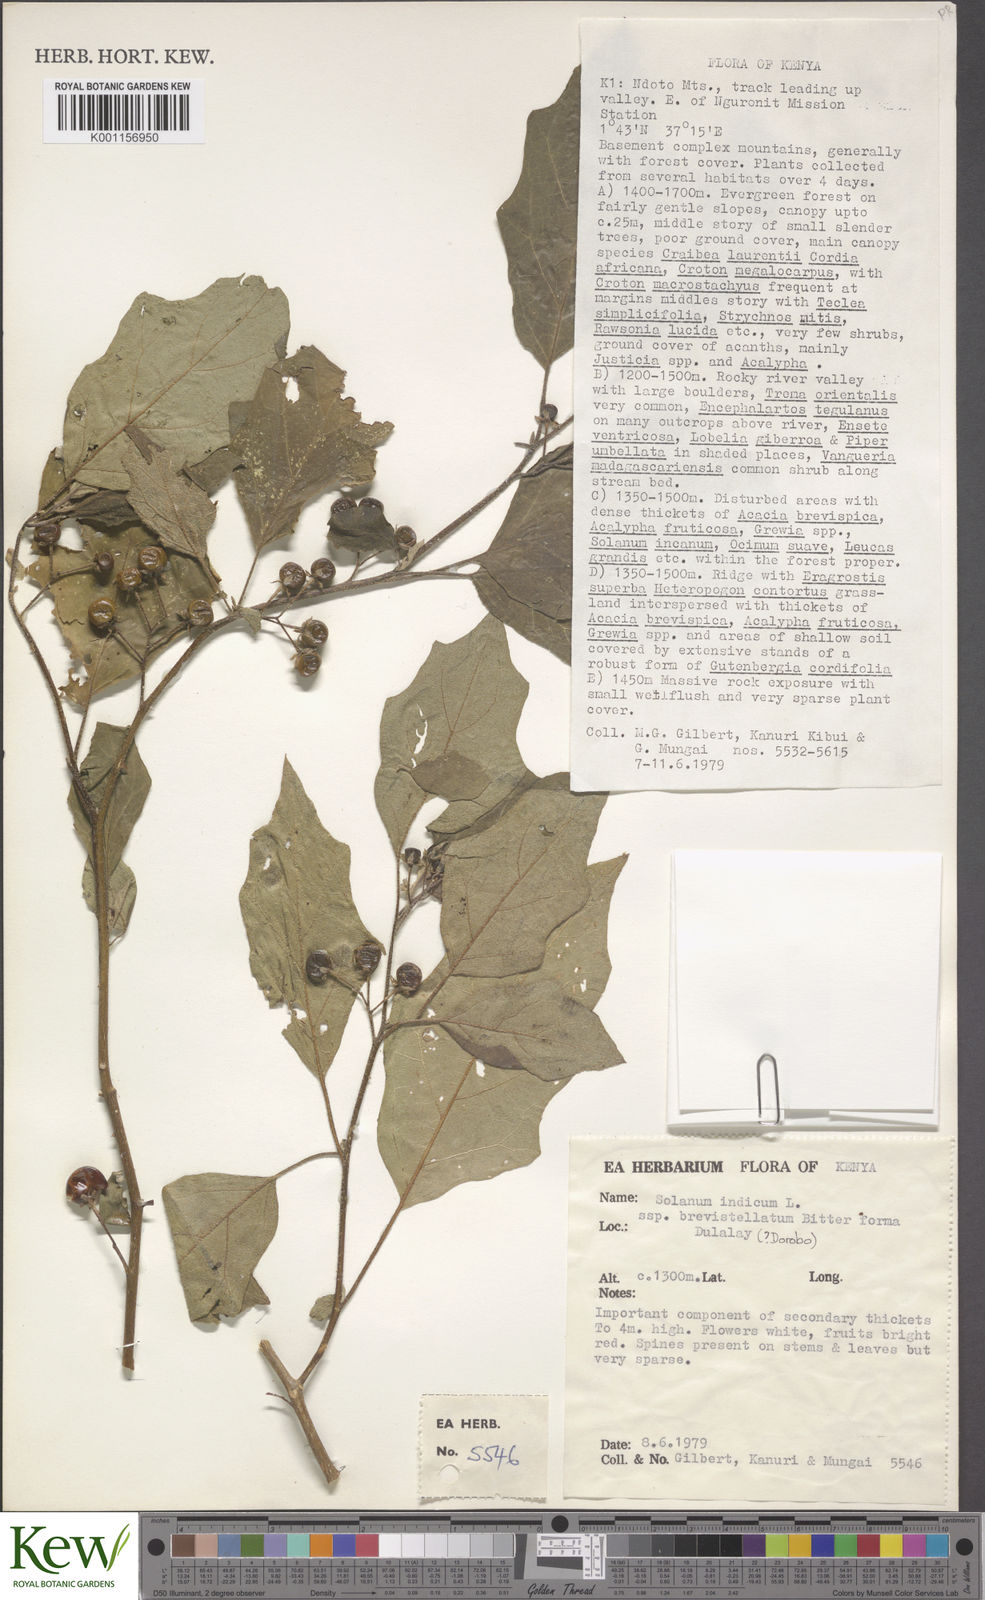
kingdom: Plantae
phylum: Tracheophyta
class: Magnoliopsida
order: Solanales
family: Solanaceae
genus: Solanum
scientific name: Solanum anguivi
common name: Forest bitterberry
